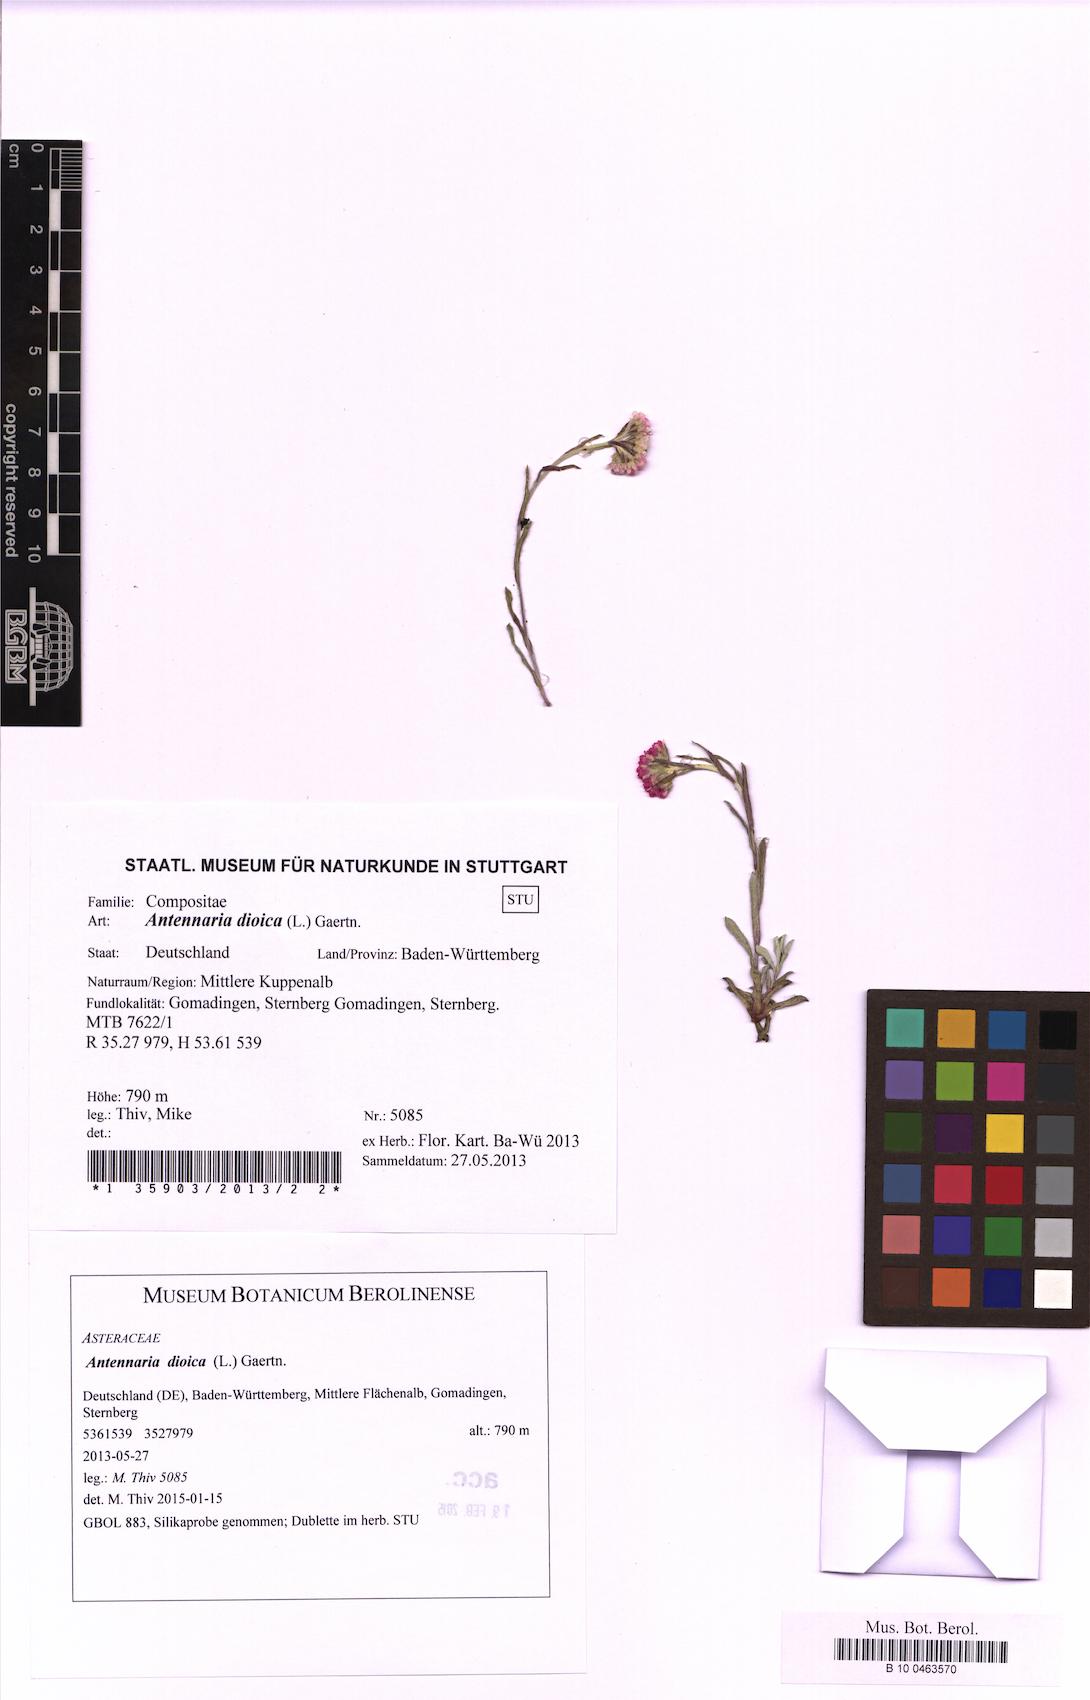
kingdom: Plantae
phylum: Tracheophyta
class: Magnoliopsida
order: Asterales
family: Asteraceae
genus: Antennaria
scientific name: Antennaria dioica
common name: Mountain everlasting
